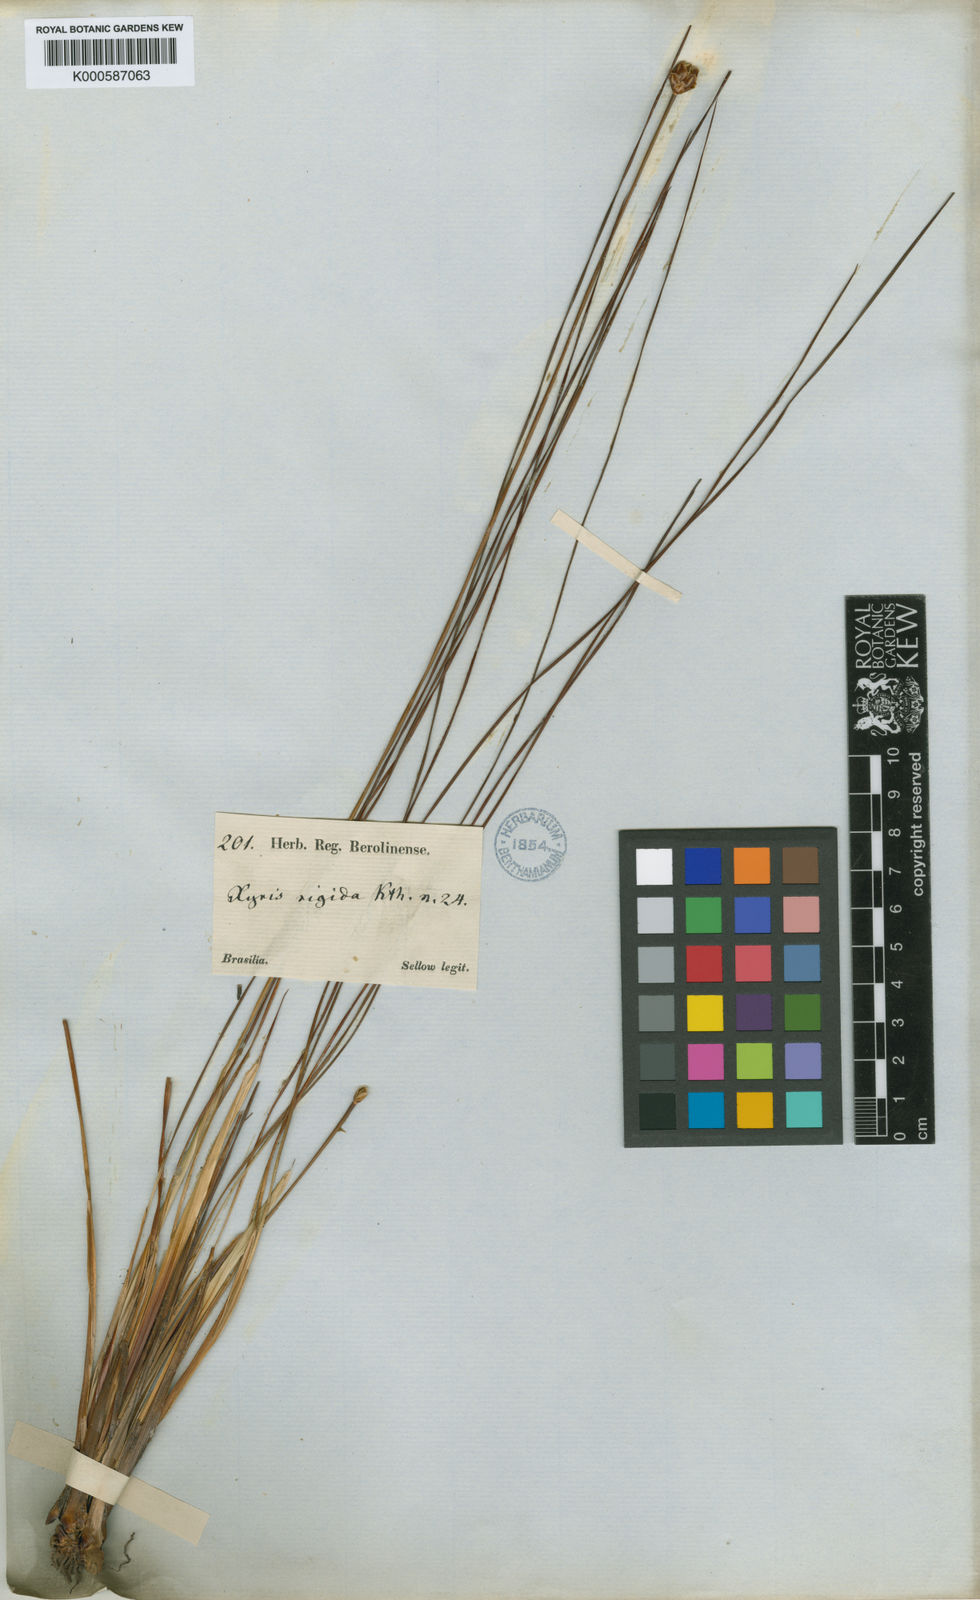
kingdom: Plantae
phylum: Tracheophyta
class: Liliopsida
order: Poales
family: Xyridaceae
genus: Xyris
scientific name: Xyris rigida
